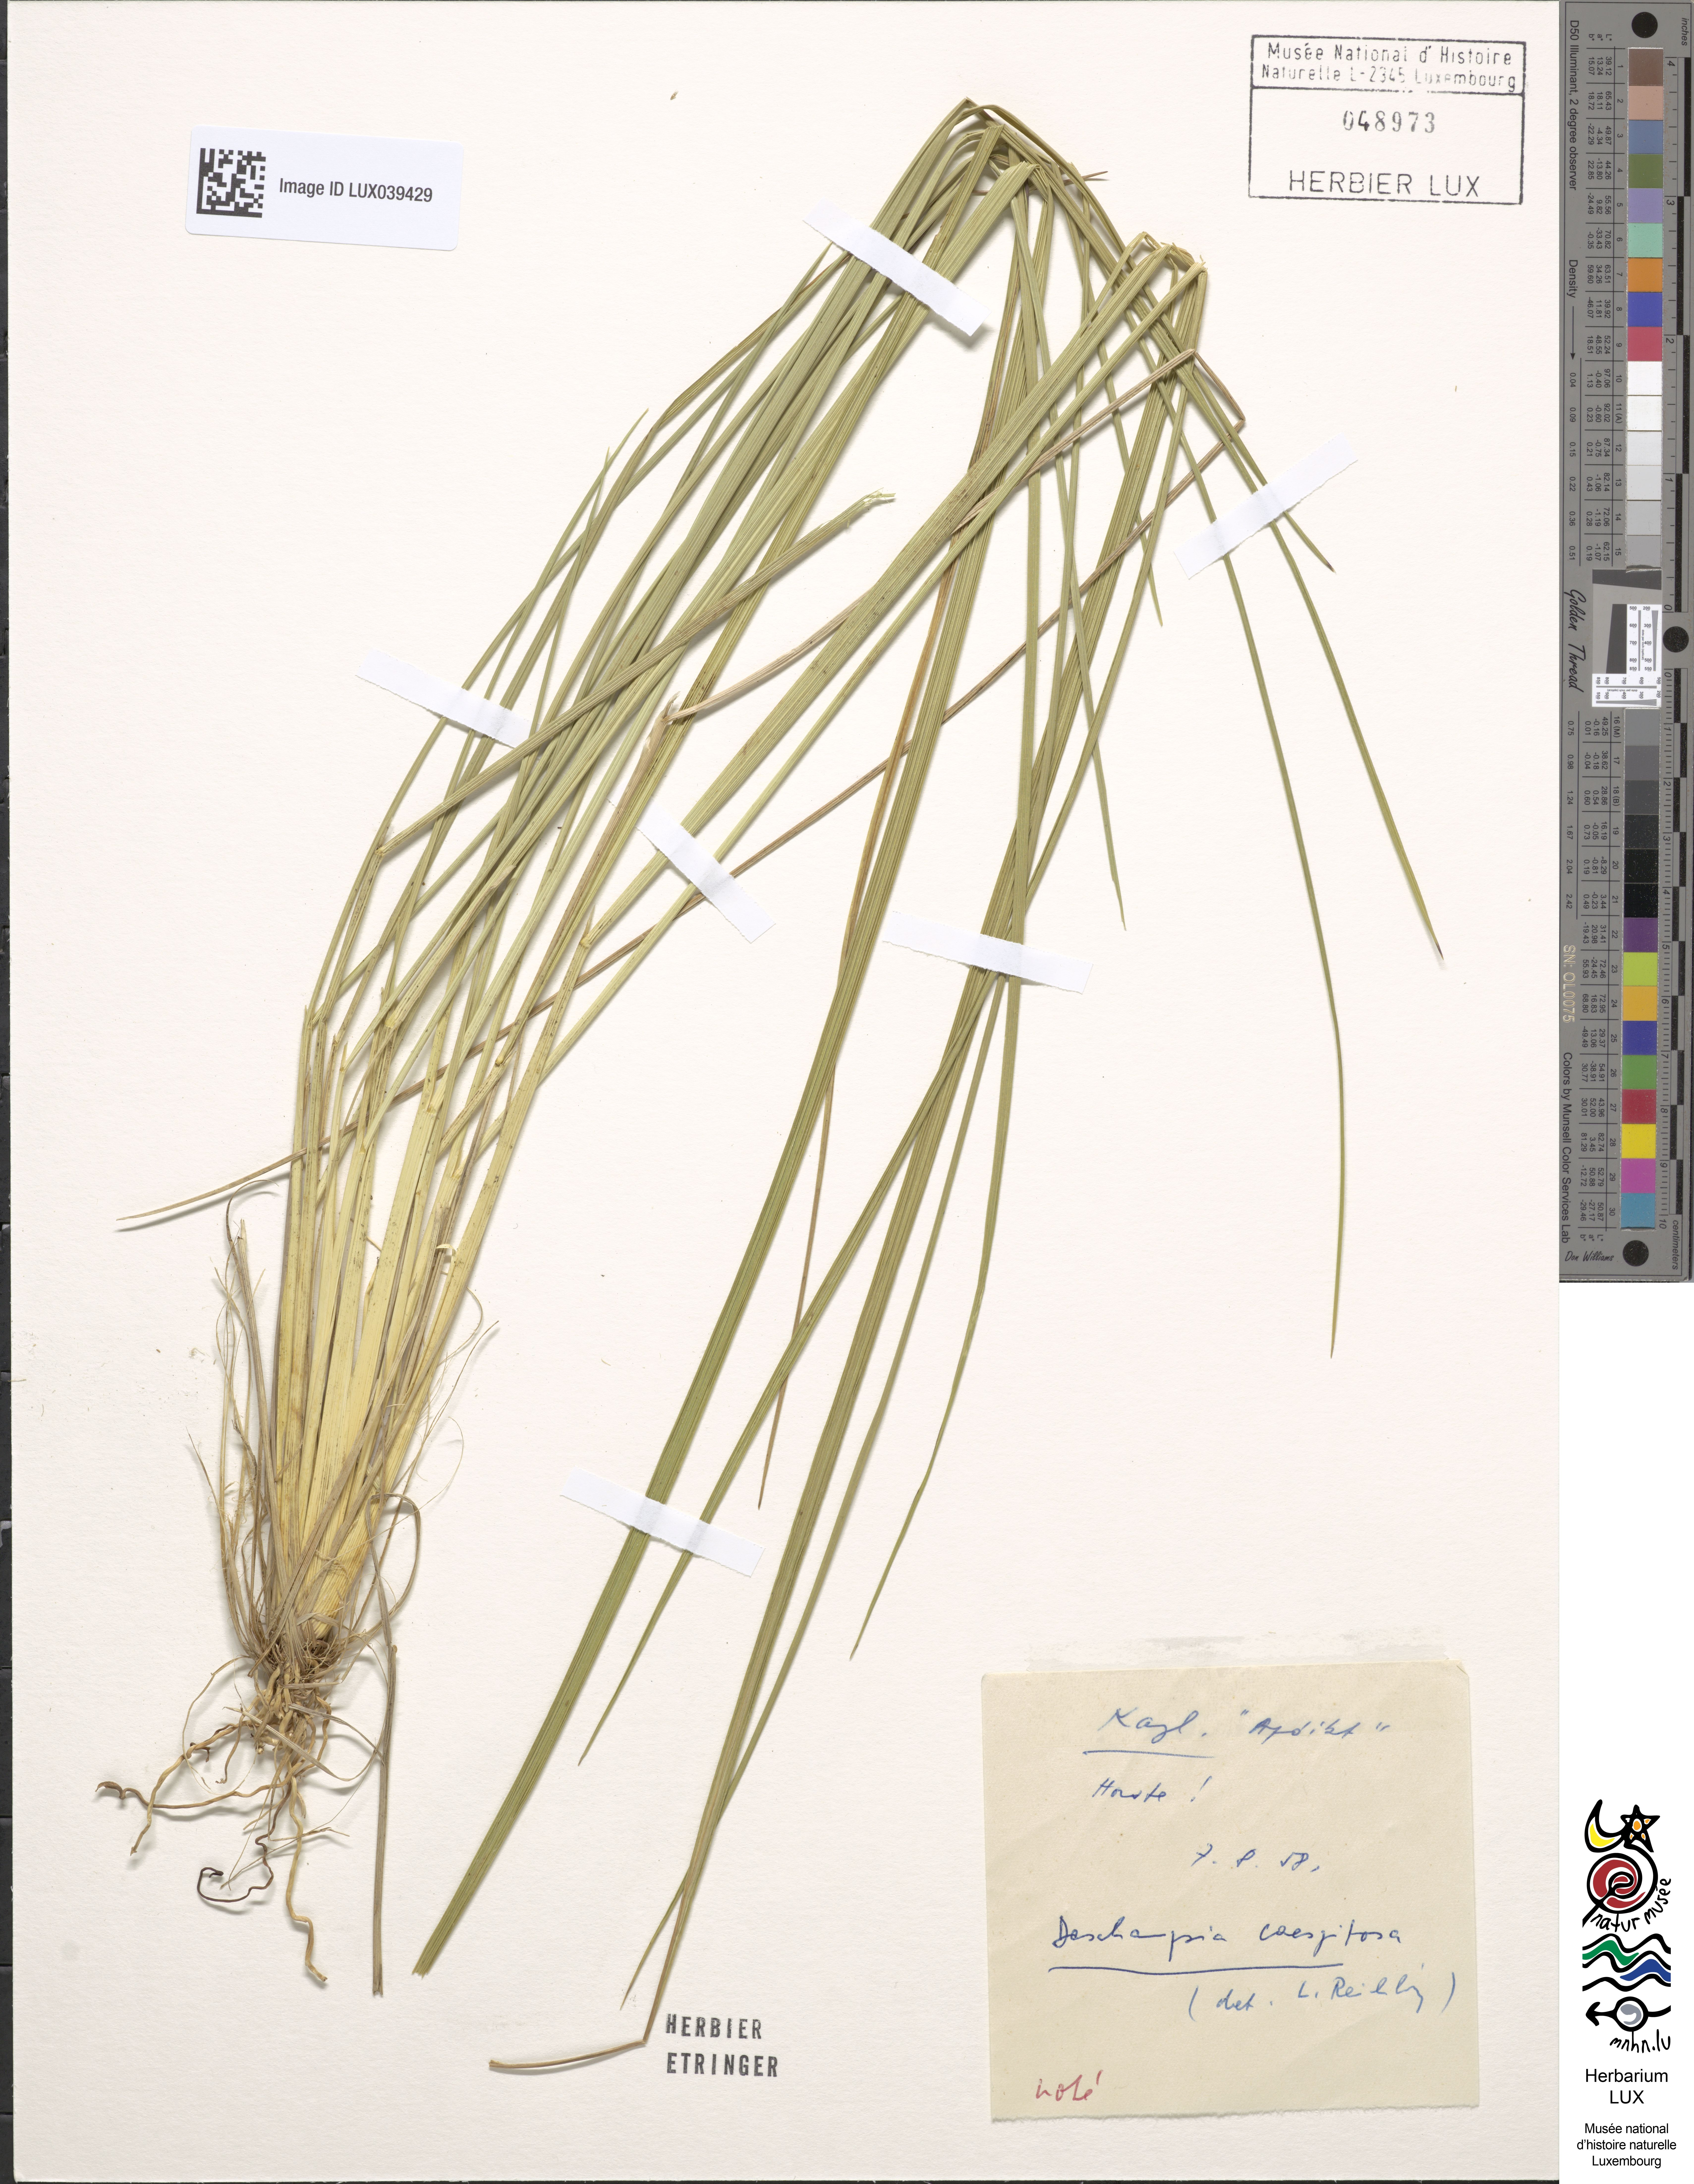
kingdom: Plantae
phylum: Tracheophyta
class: Liliopsida
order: Poales
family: Poaceae
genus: Deschampsia
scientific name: Deschampsia cespitosa
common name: Tufted hair-grass
